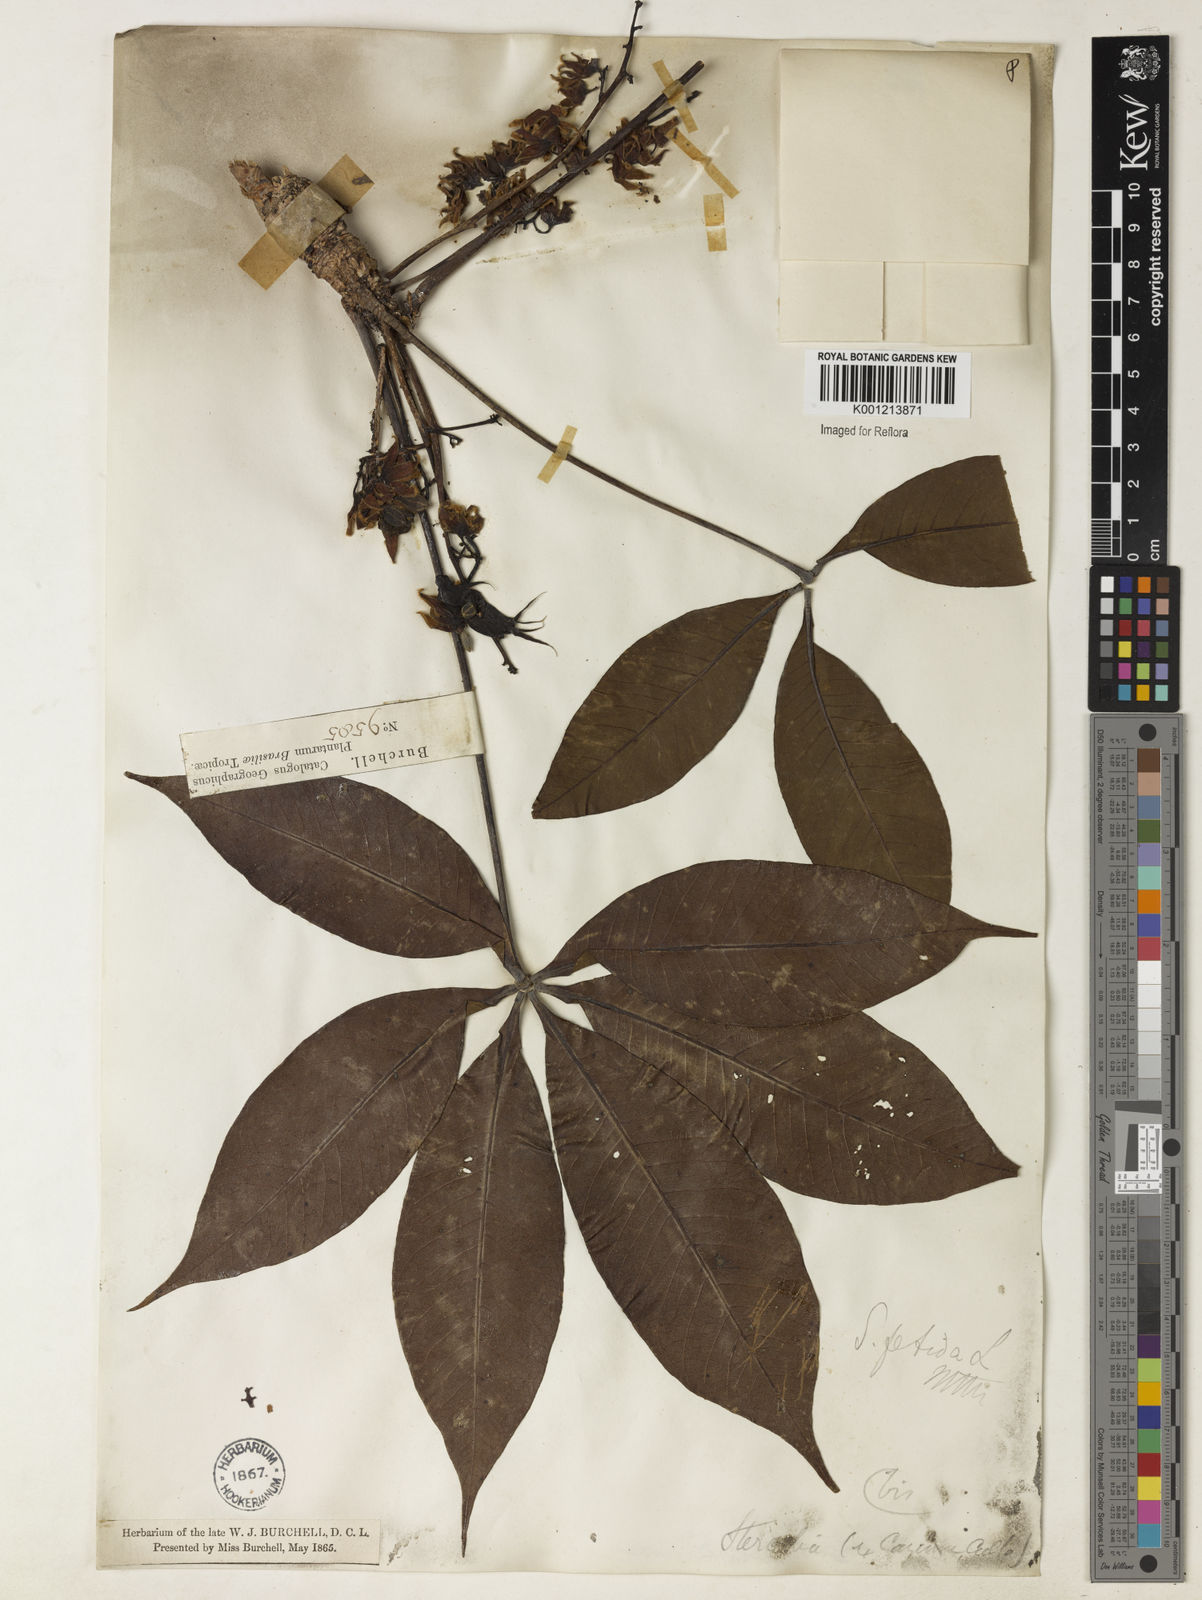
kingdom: Plantae
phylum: Tracheophyta
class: Magnoliopsida
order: Malvales
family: Malvaceae
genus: Sterculia
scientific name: Sterculia foetida
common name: Hazel sterculia
